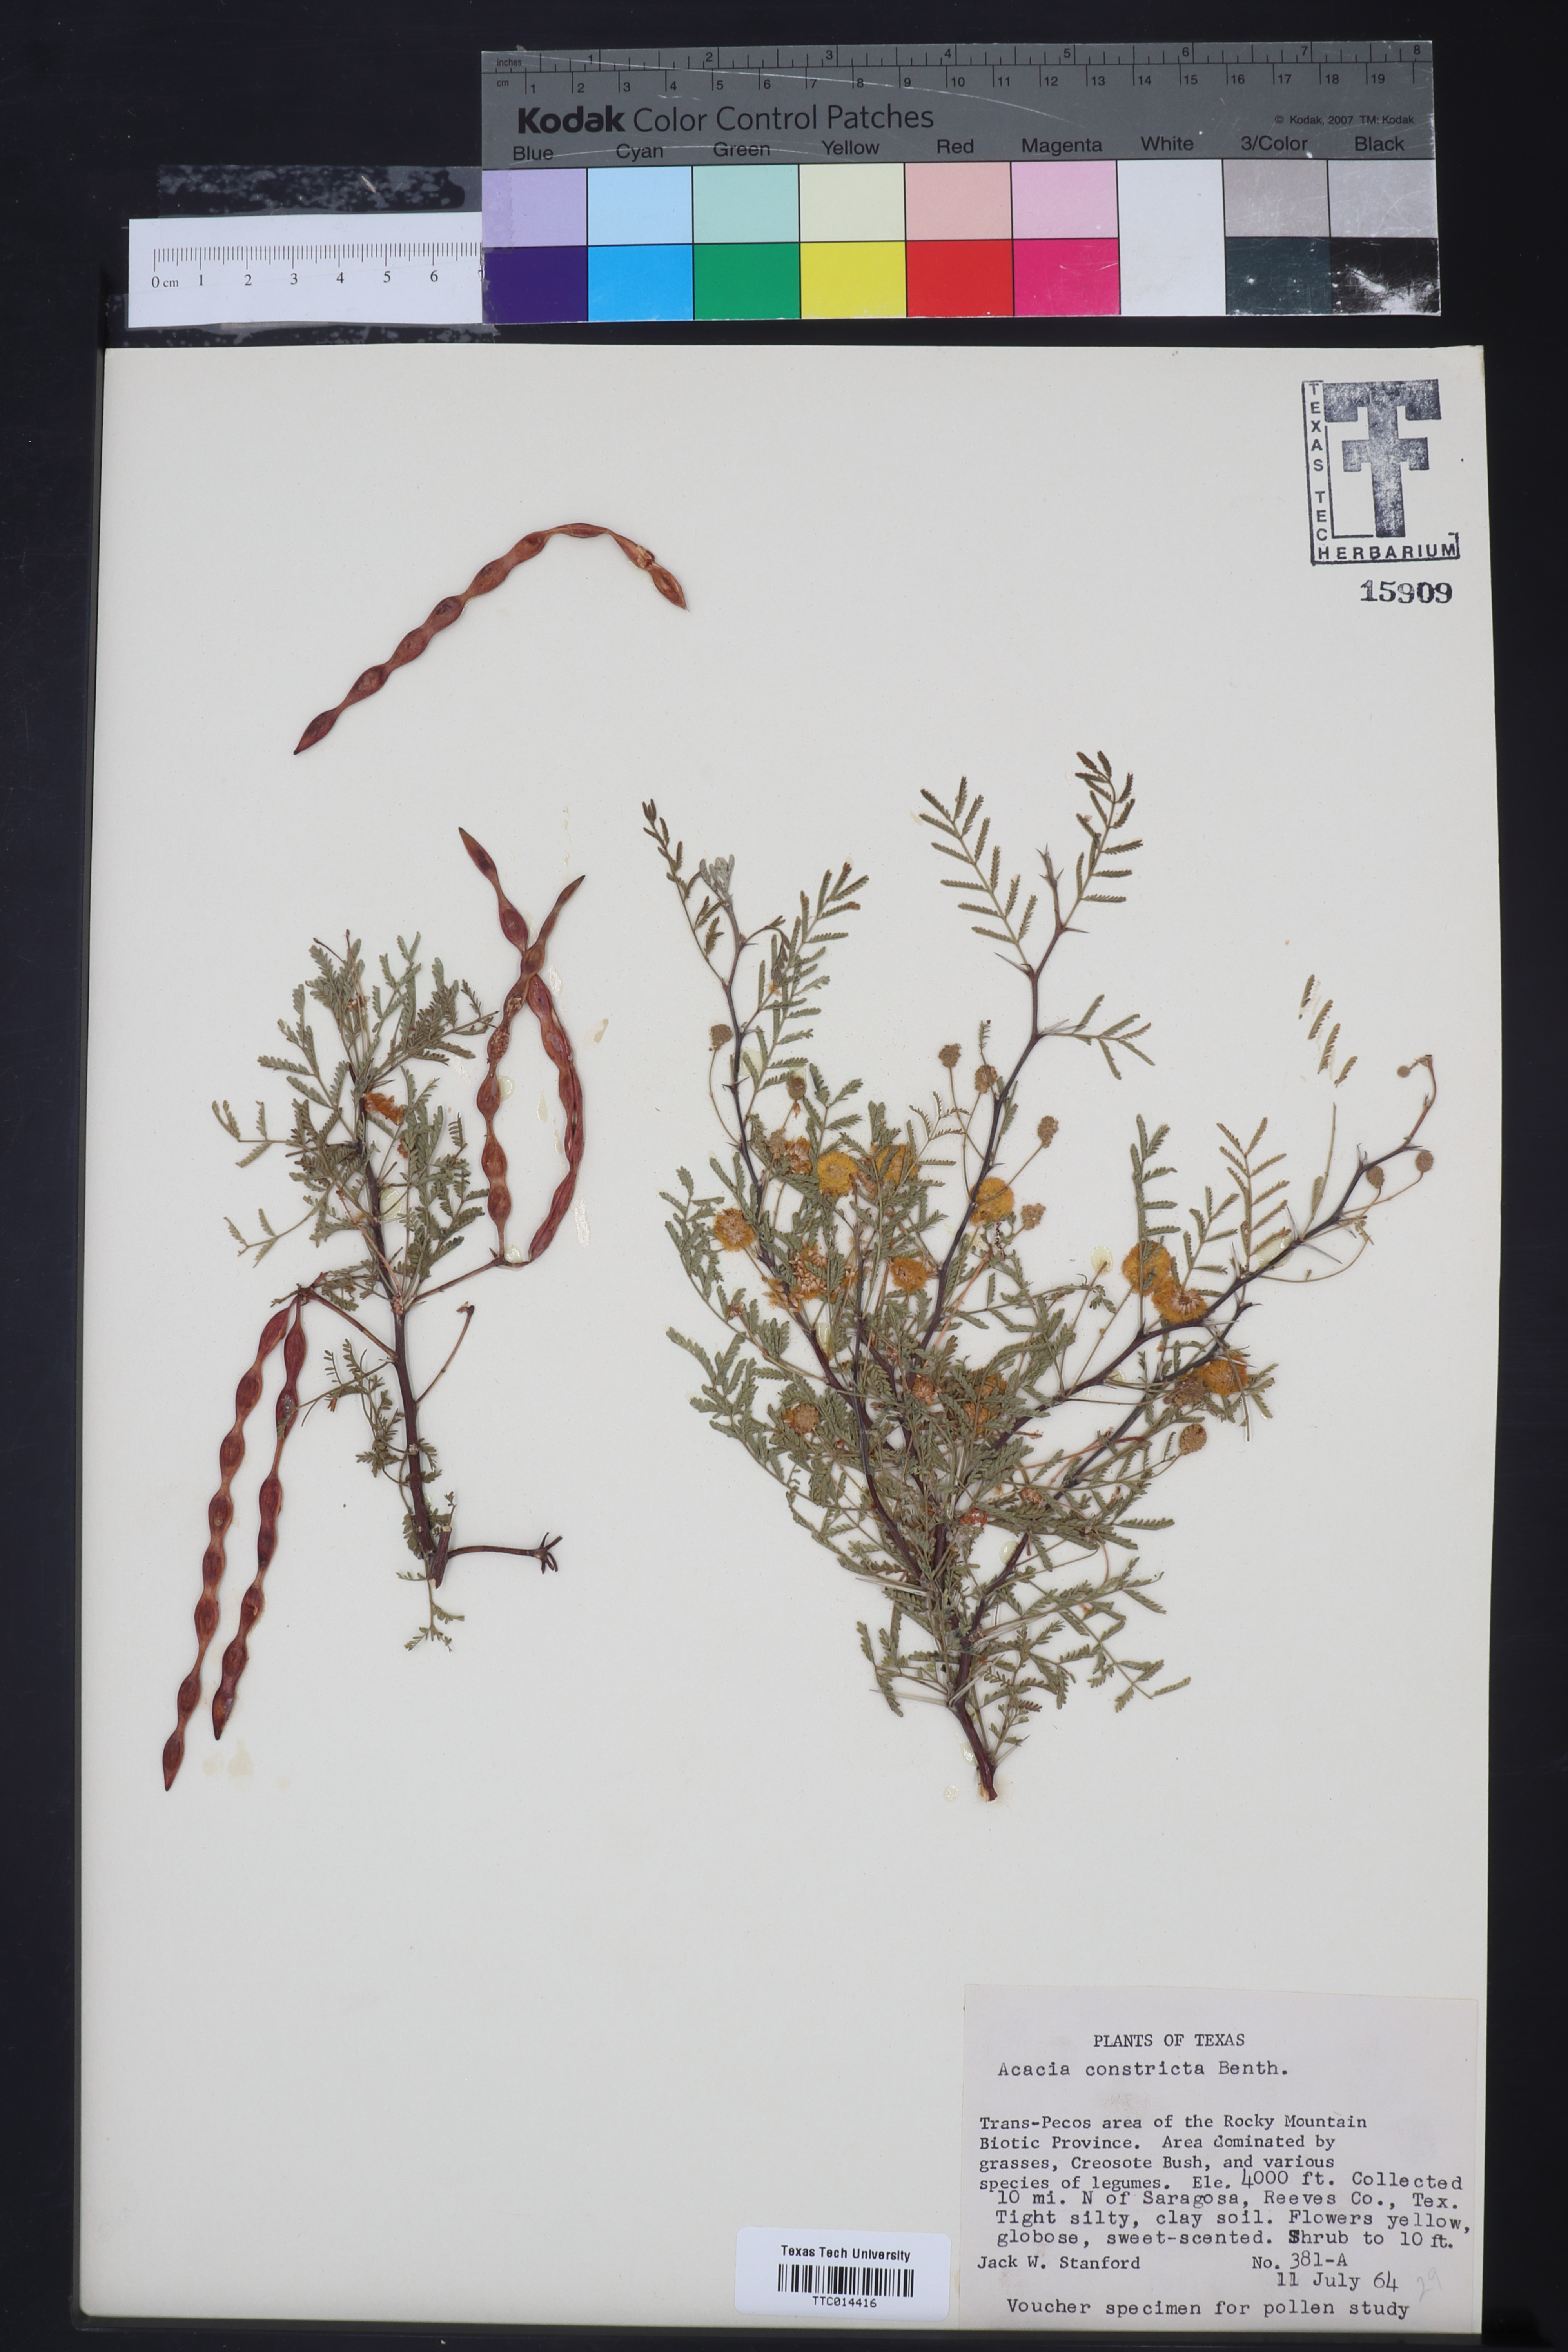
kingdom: Plantae
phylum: Tracheophyta
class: Magnoliopsida
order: Fabales
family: Fabaceae
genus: Vachellia
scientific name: Vachellia constricta
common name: Mescat acacia
